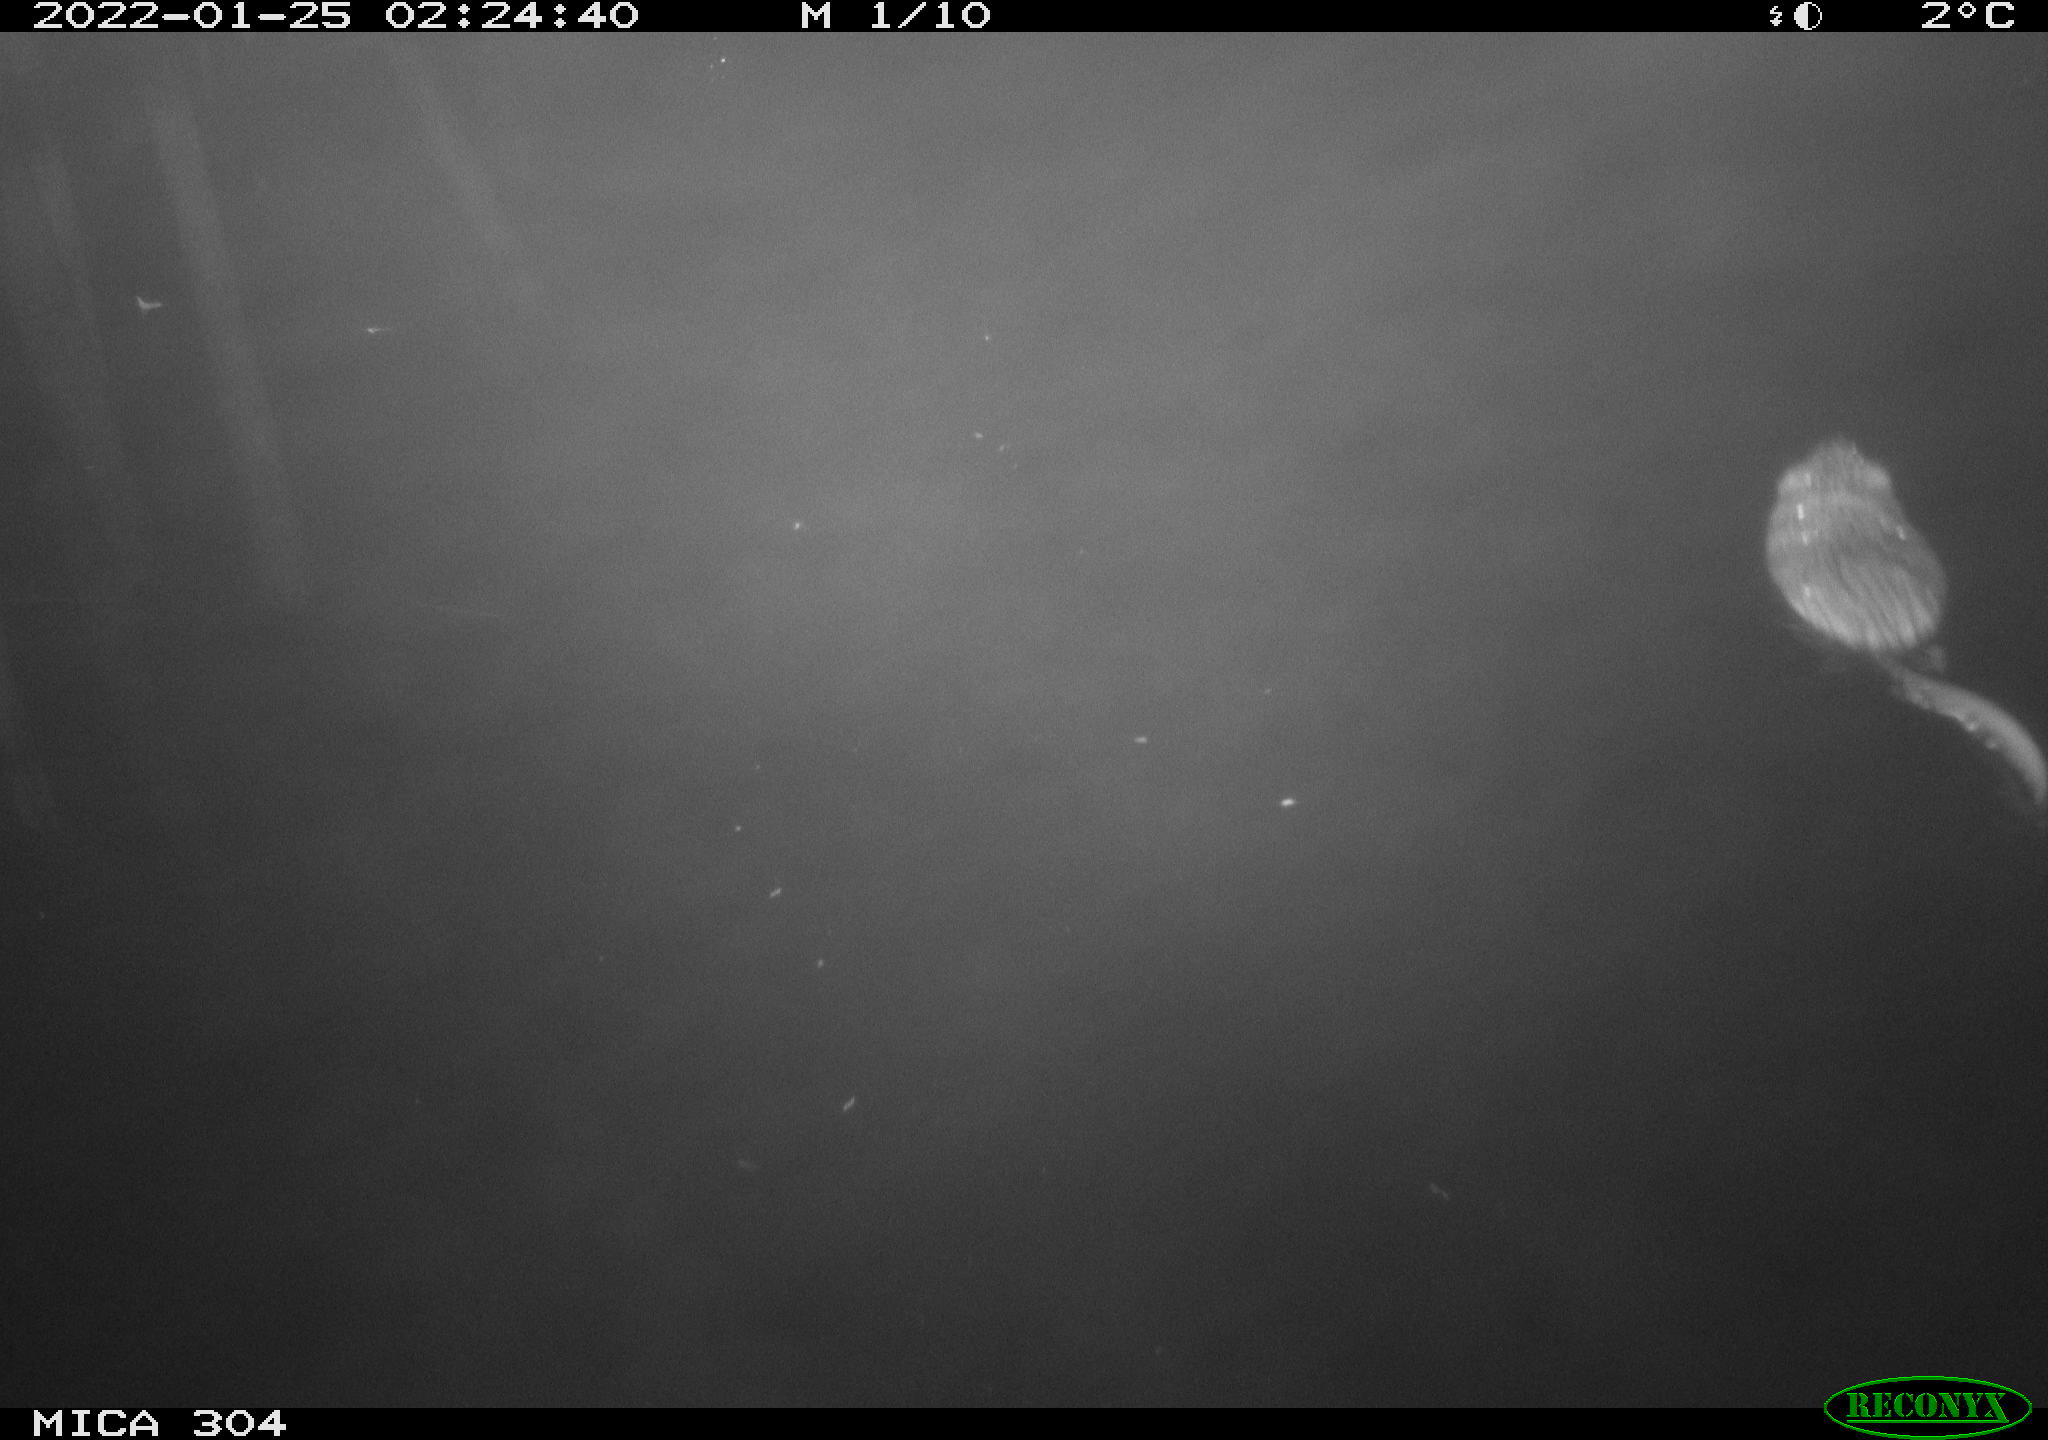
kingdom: Animalia
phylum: Chordata
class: Mammalia
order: Rodentia
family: Cricetidae
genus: Ondatra
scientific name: Ondatra zibethicus
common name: Muskrat
